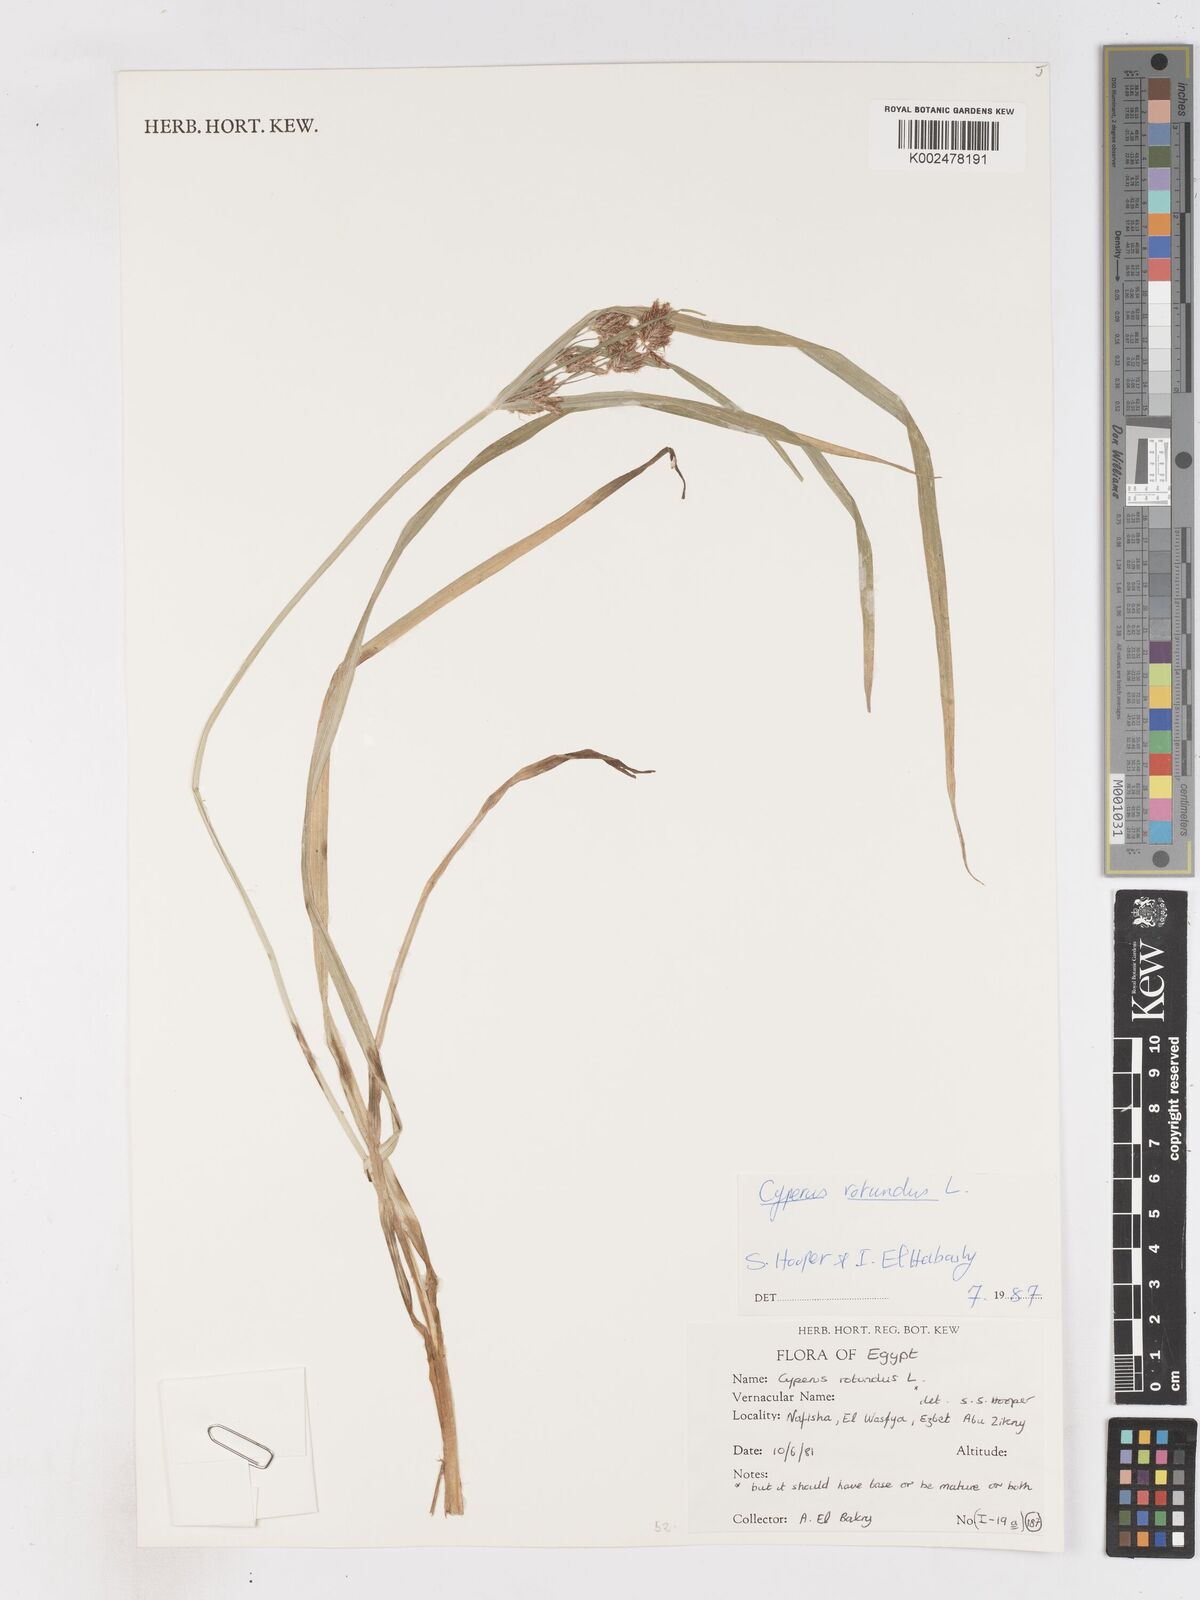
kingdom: Plantae
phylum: Tracheophyta
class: Liliopsida
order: Poales
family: Cyperaceae
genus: Cyperus
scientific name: Cyperus rotundus
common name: Nutgrass
